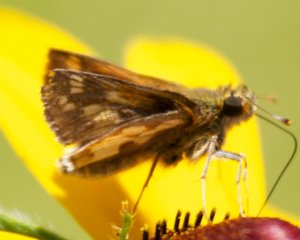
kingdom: Animalia
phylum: Arthropoda
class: Insecta
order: Lepidoptera
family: Hesperiidae
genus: Polites
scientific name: Polites coras
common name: Peck's Skipper
